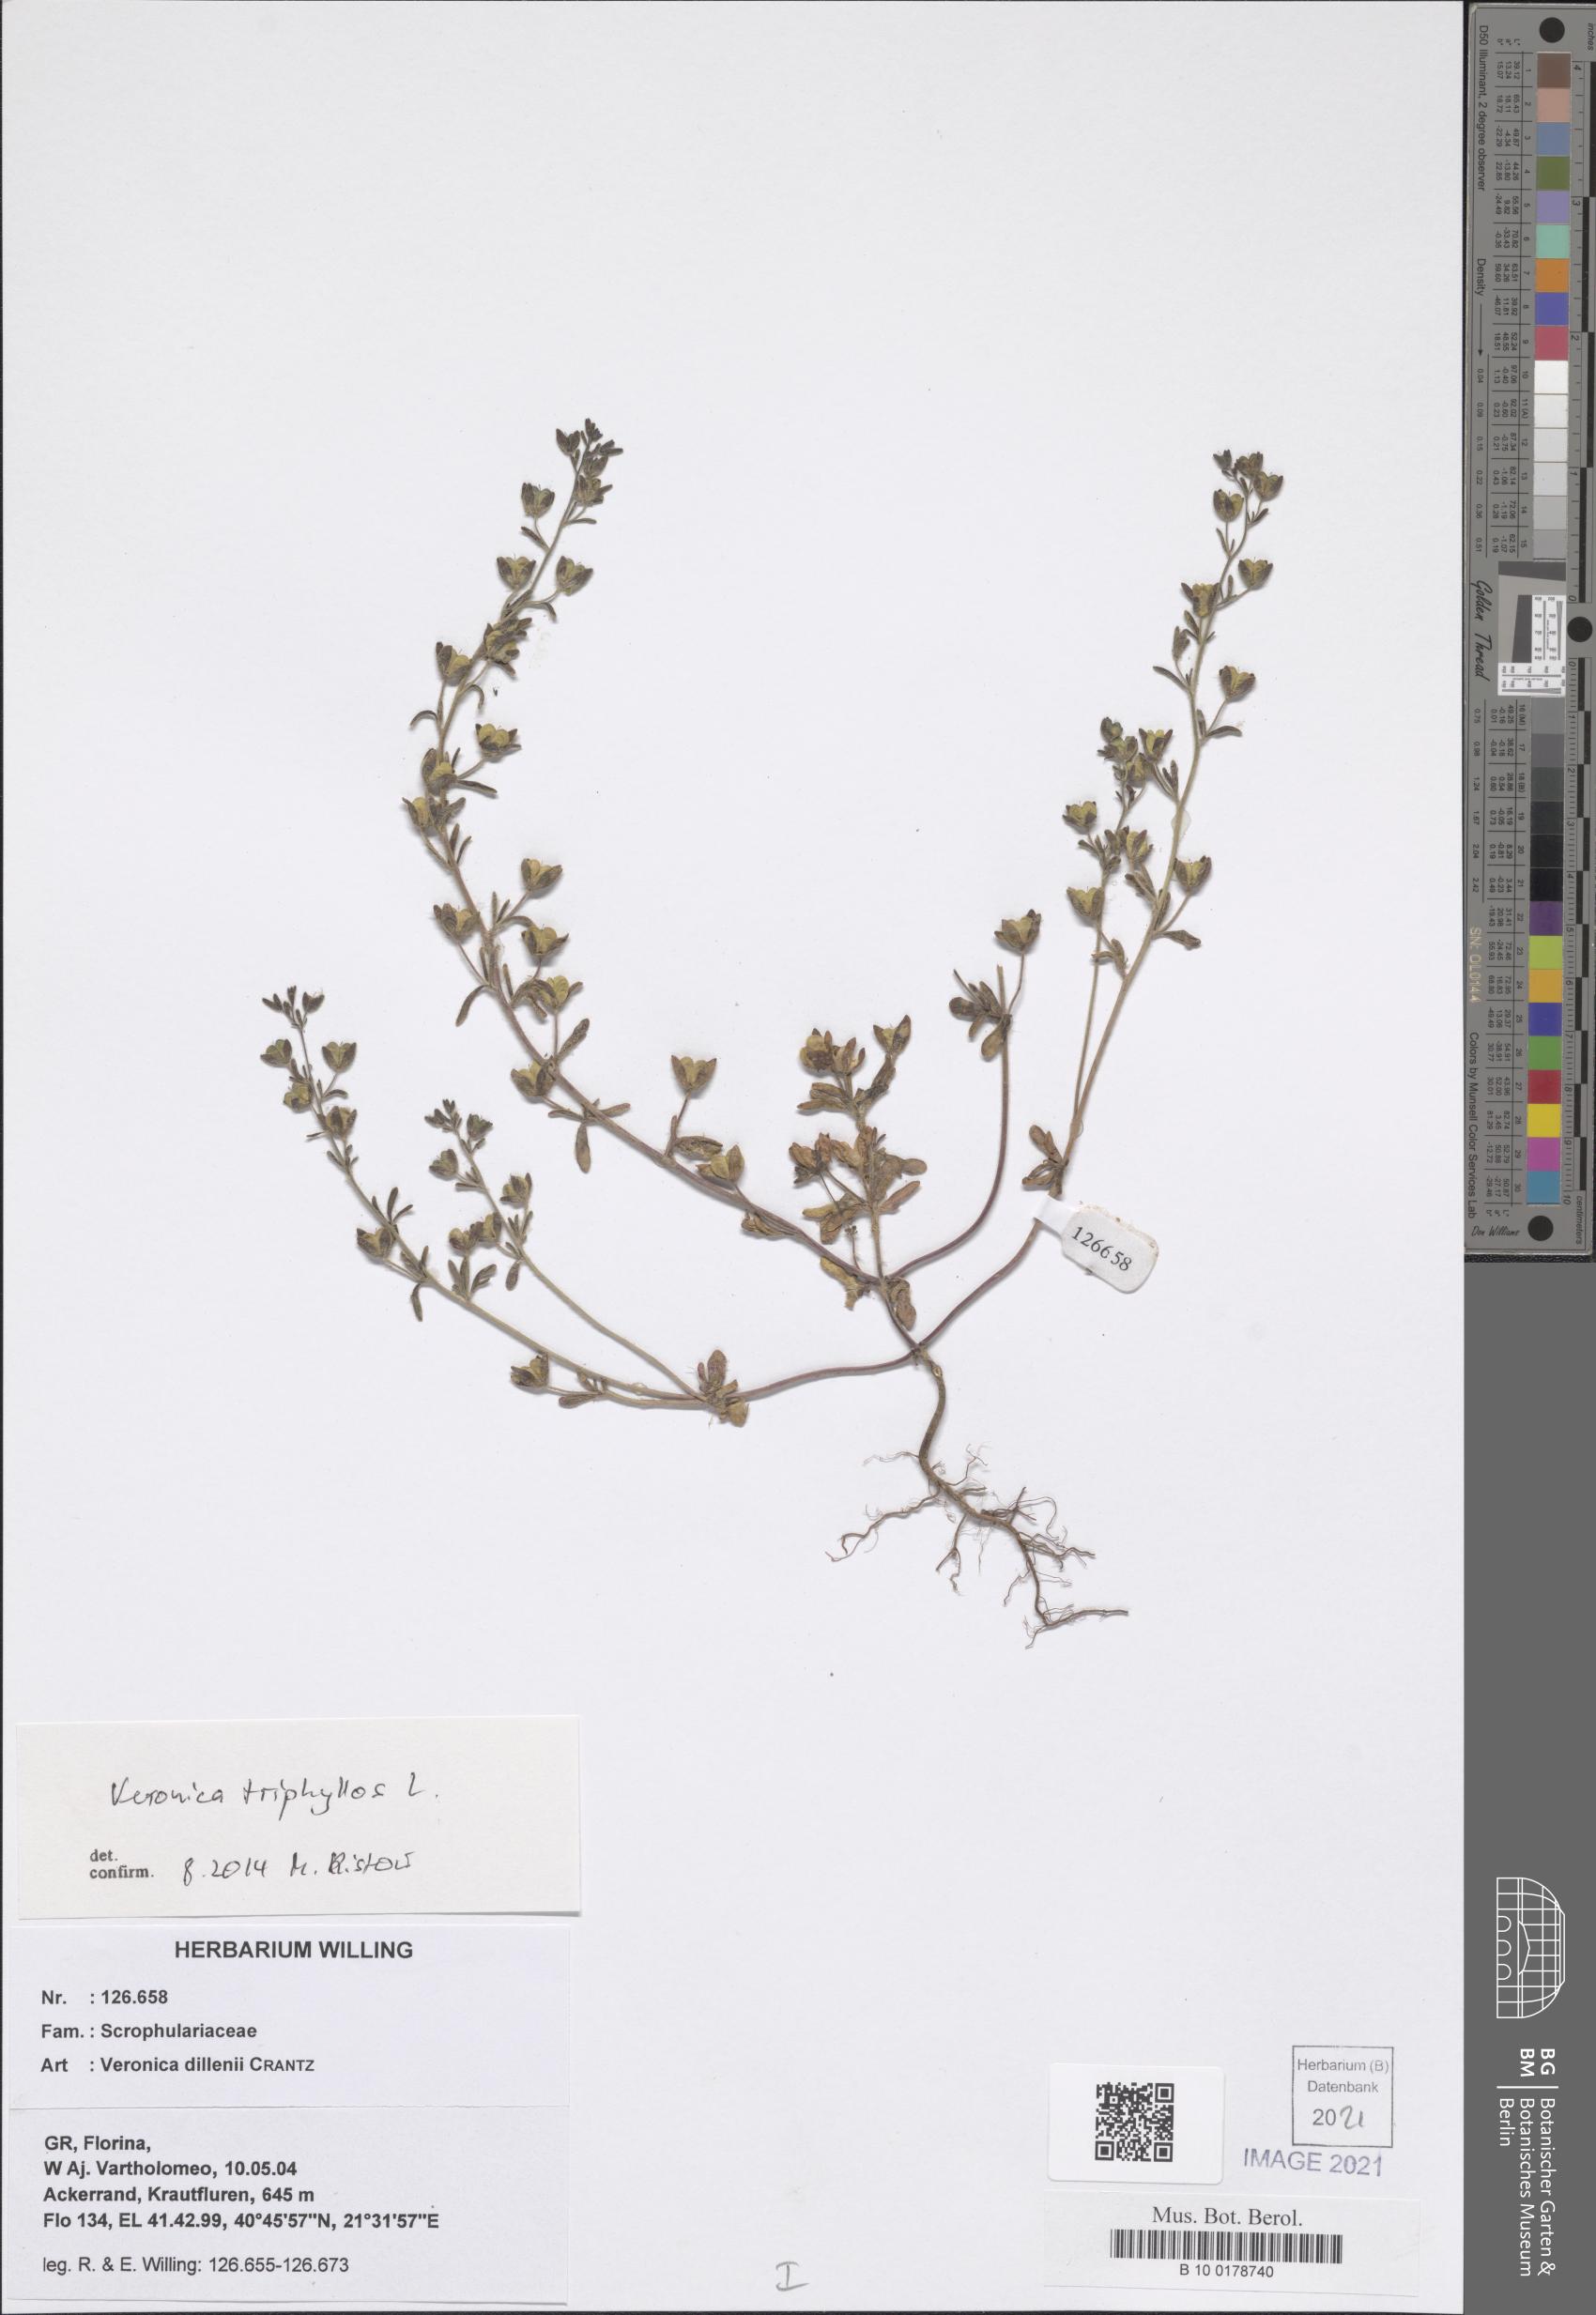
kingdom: Plantae
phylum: Tracheophyta
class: Magnoliopsida
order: Lamiales
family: Plantaginaceae
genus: Veronica
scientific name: Veronica triphyllos
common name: Fingered speedwell
